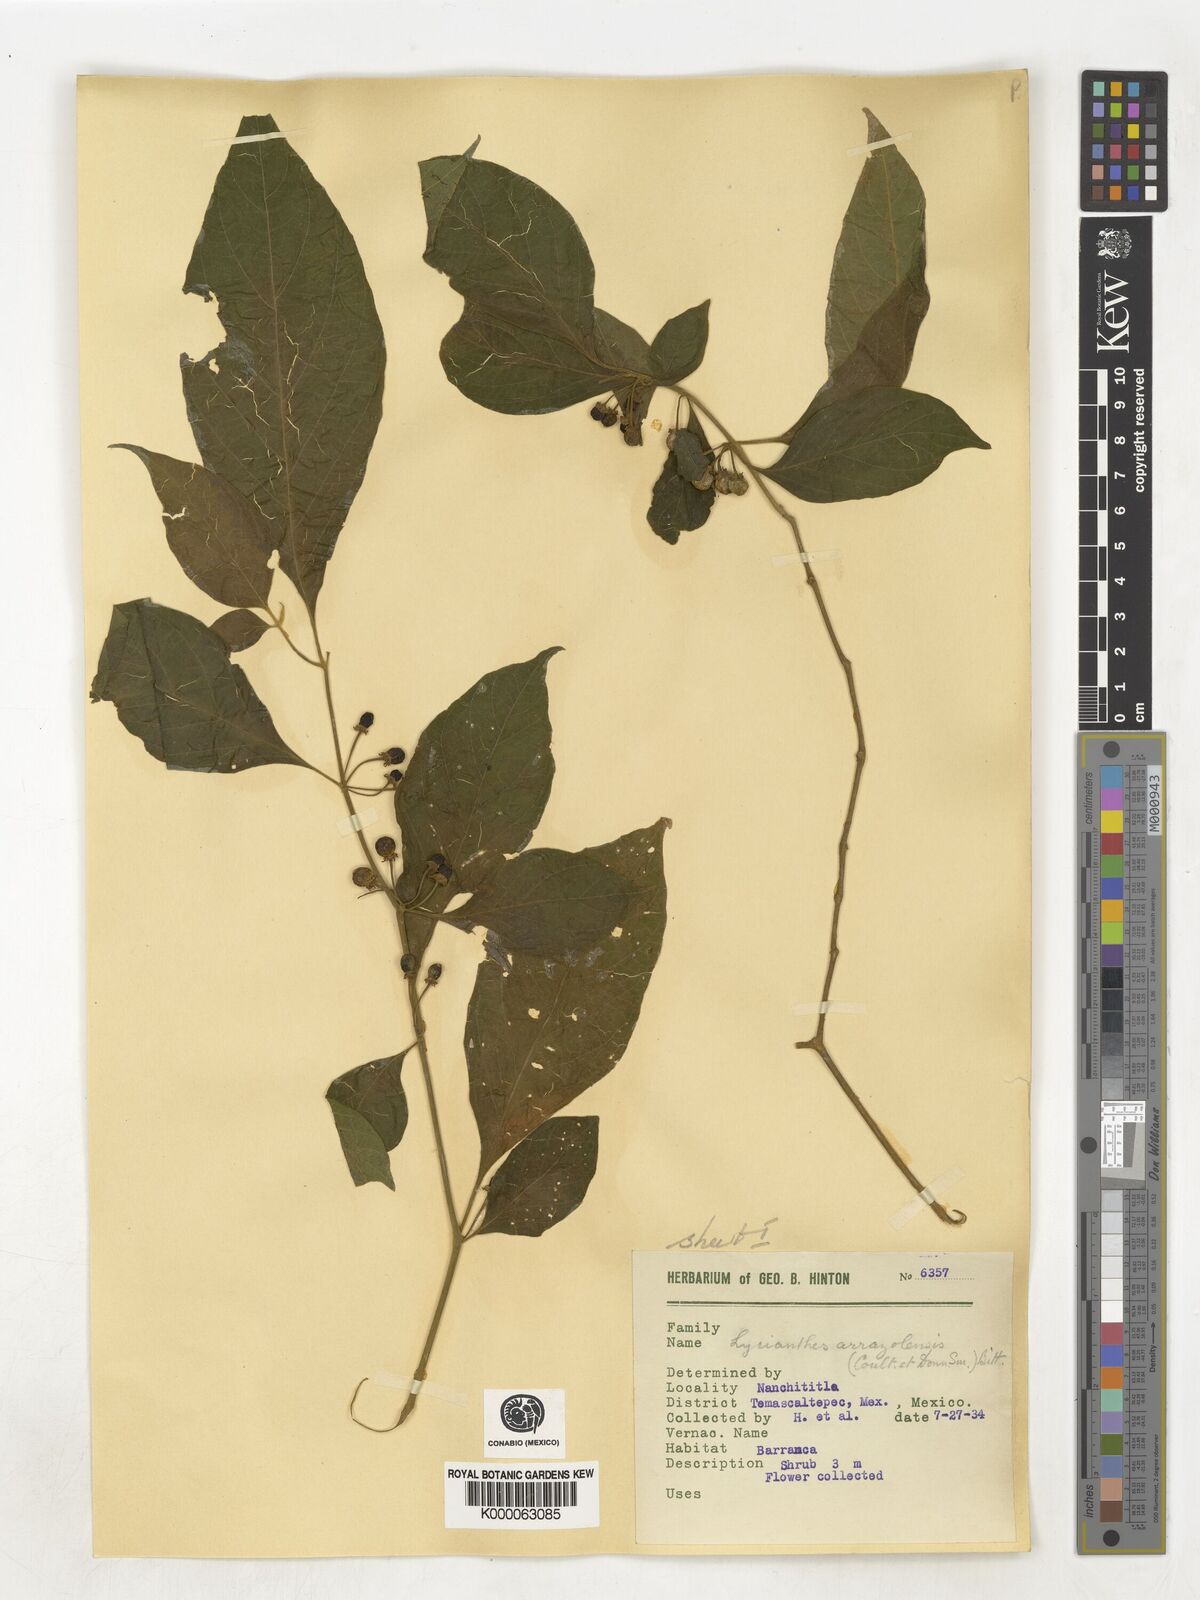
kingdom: Plantae
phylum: Tracheophyta
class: Magnoliopsida
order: Solanales
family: Solanaceae
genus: Lycianthes
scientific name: Lycianthes
